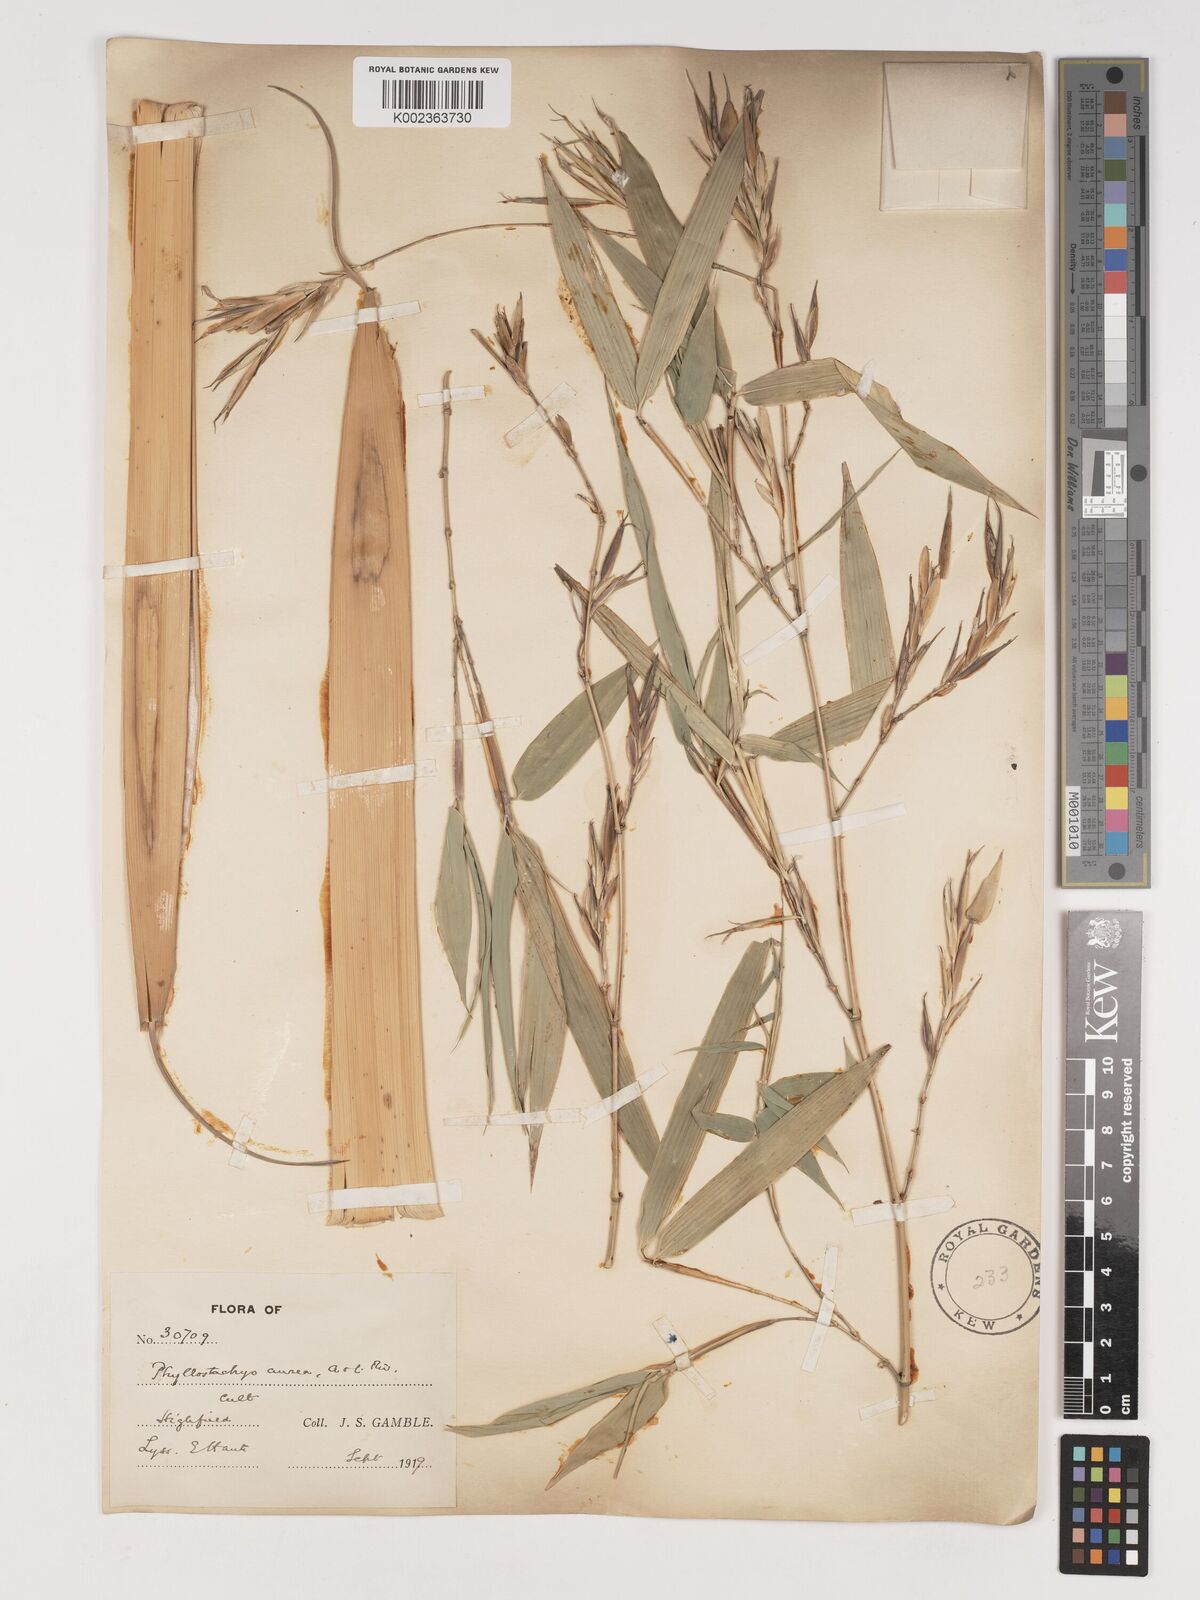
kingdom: Plantae
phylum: Tracheophyta
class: Liliopsida
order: Poales
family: Poaceae
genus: Phyllostachys
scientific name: Phyllostachys aurea
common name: Golden bamboo
